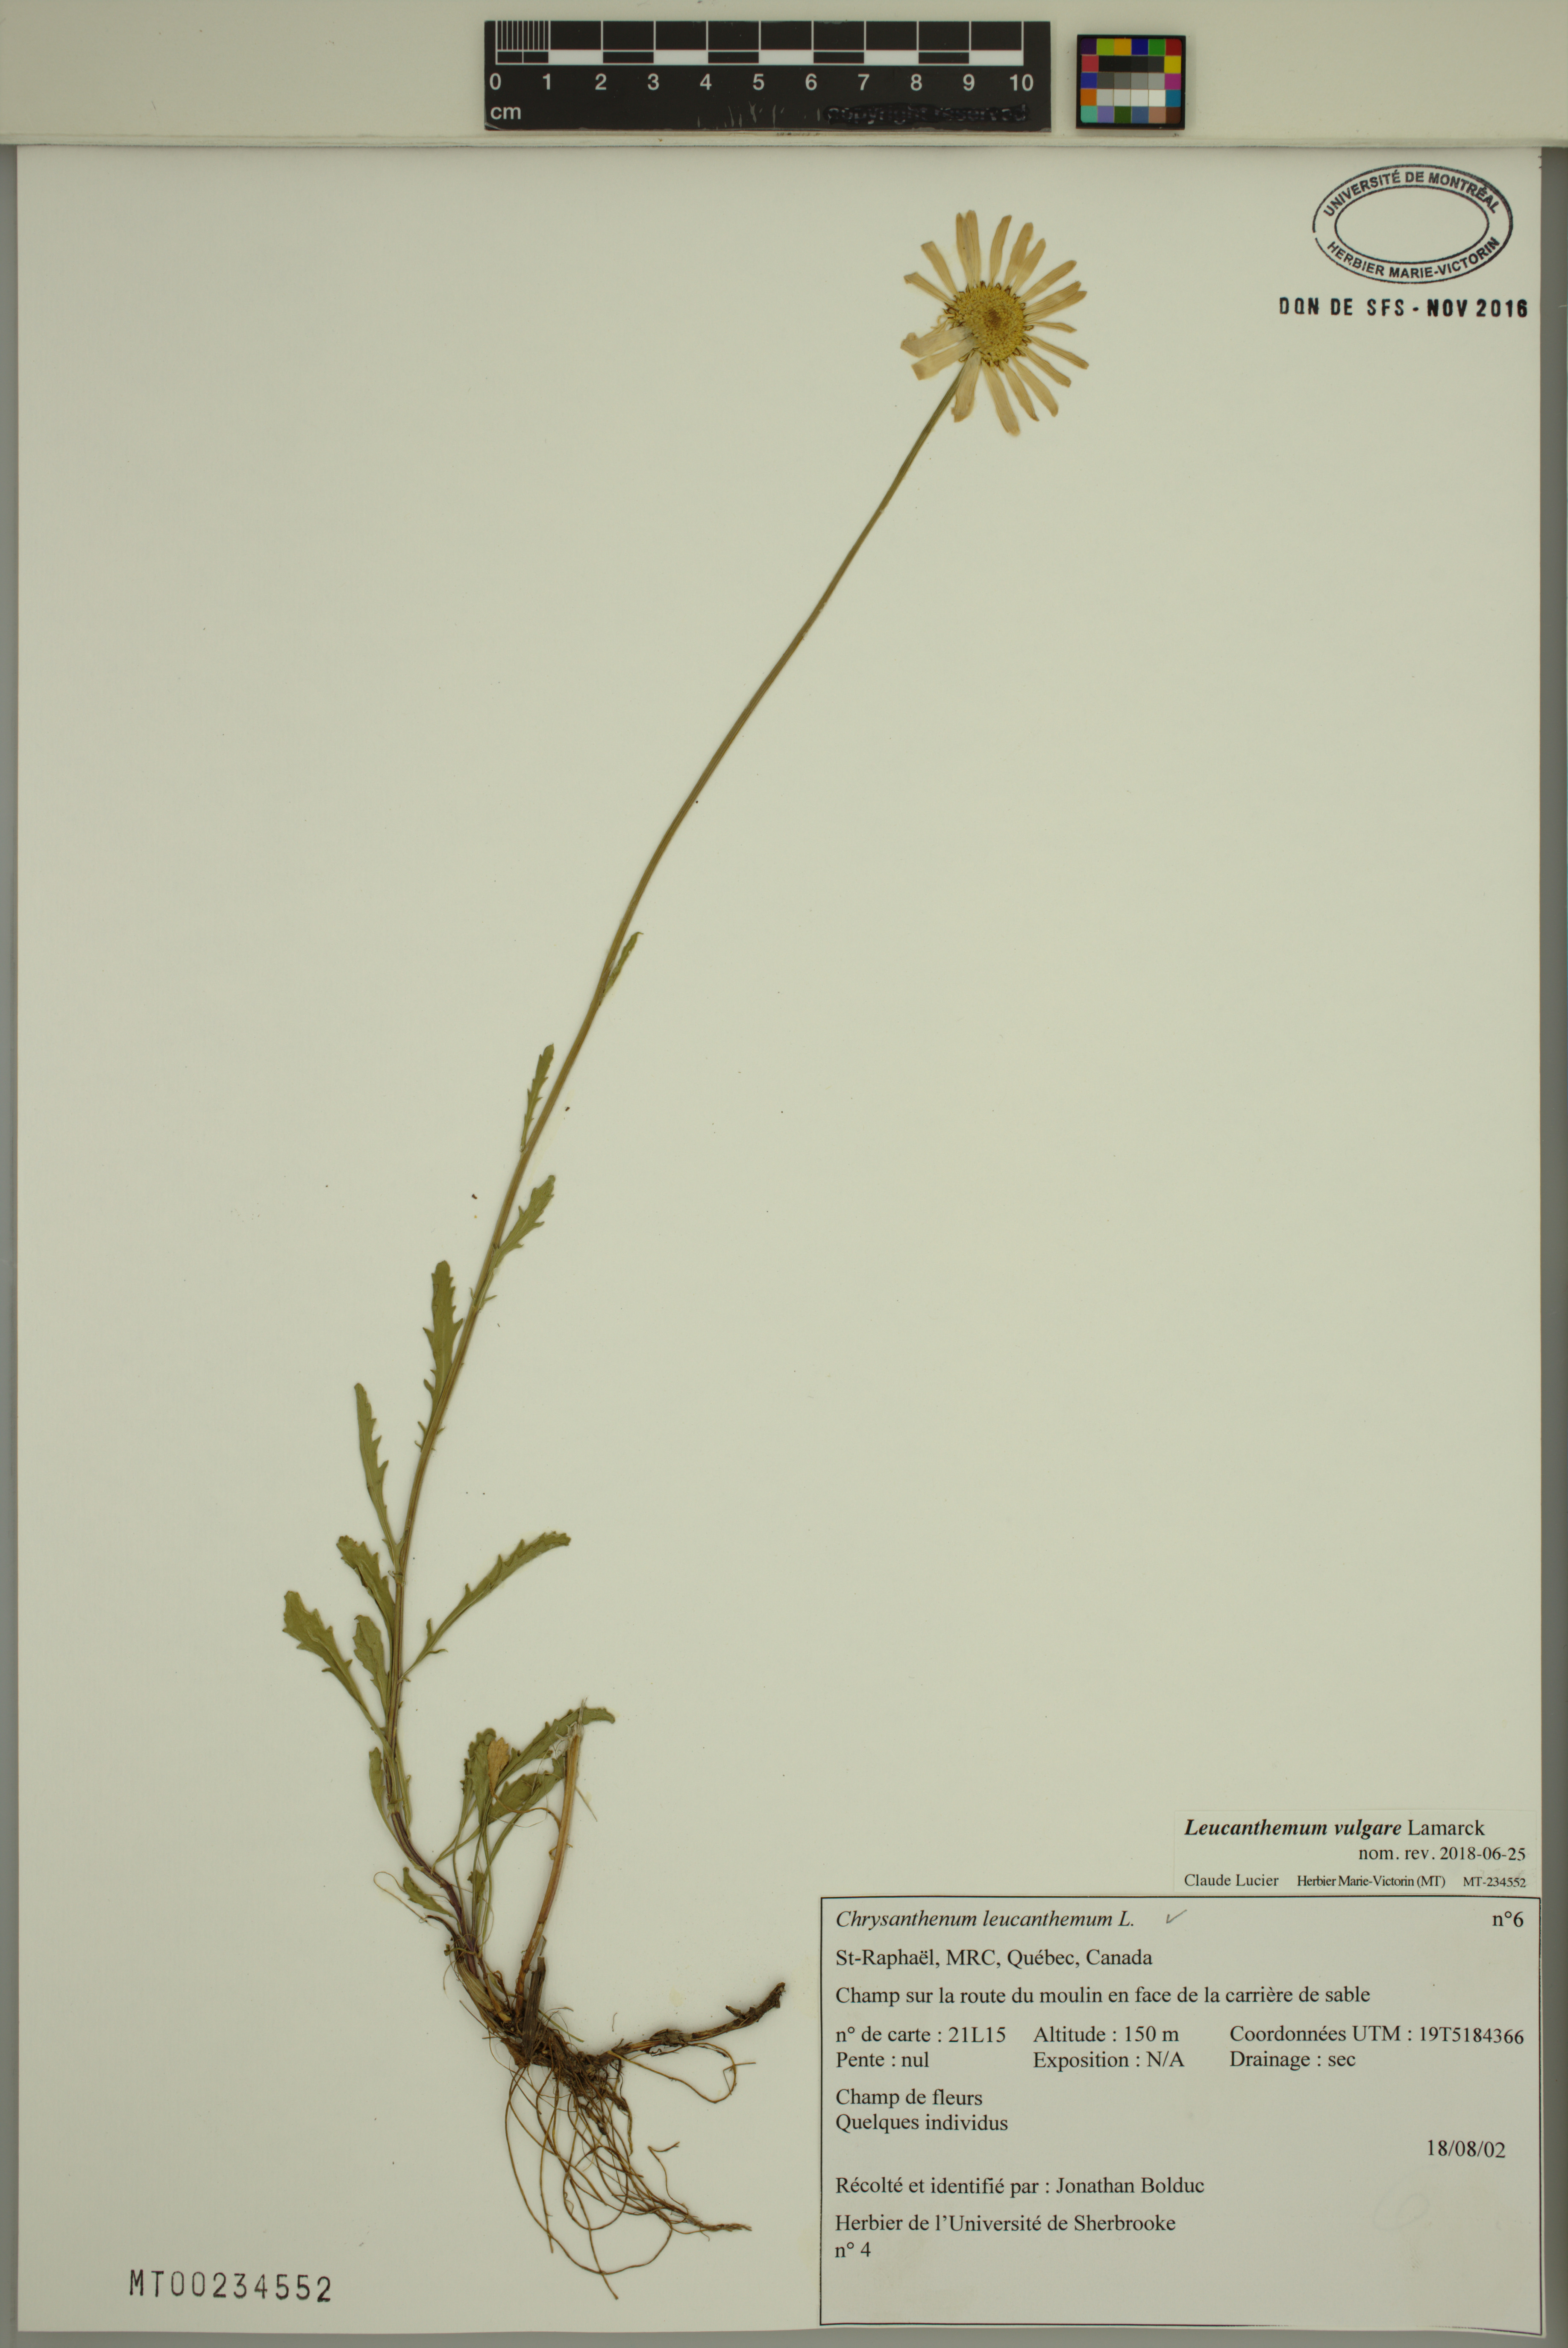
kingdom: Plantae
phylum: Tracheophyta
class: Magnoliopsida
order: Asterales
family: Asteraceae
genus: Leucanthemum
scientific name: Leucanthemum vulgare
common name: Oxeye daisy
